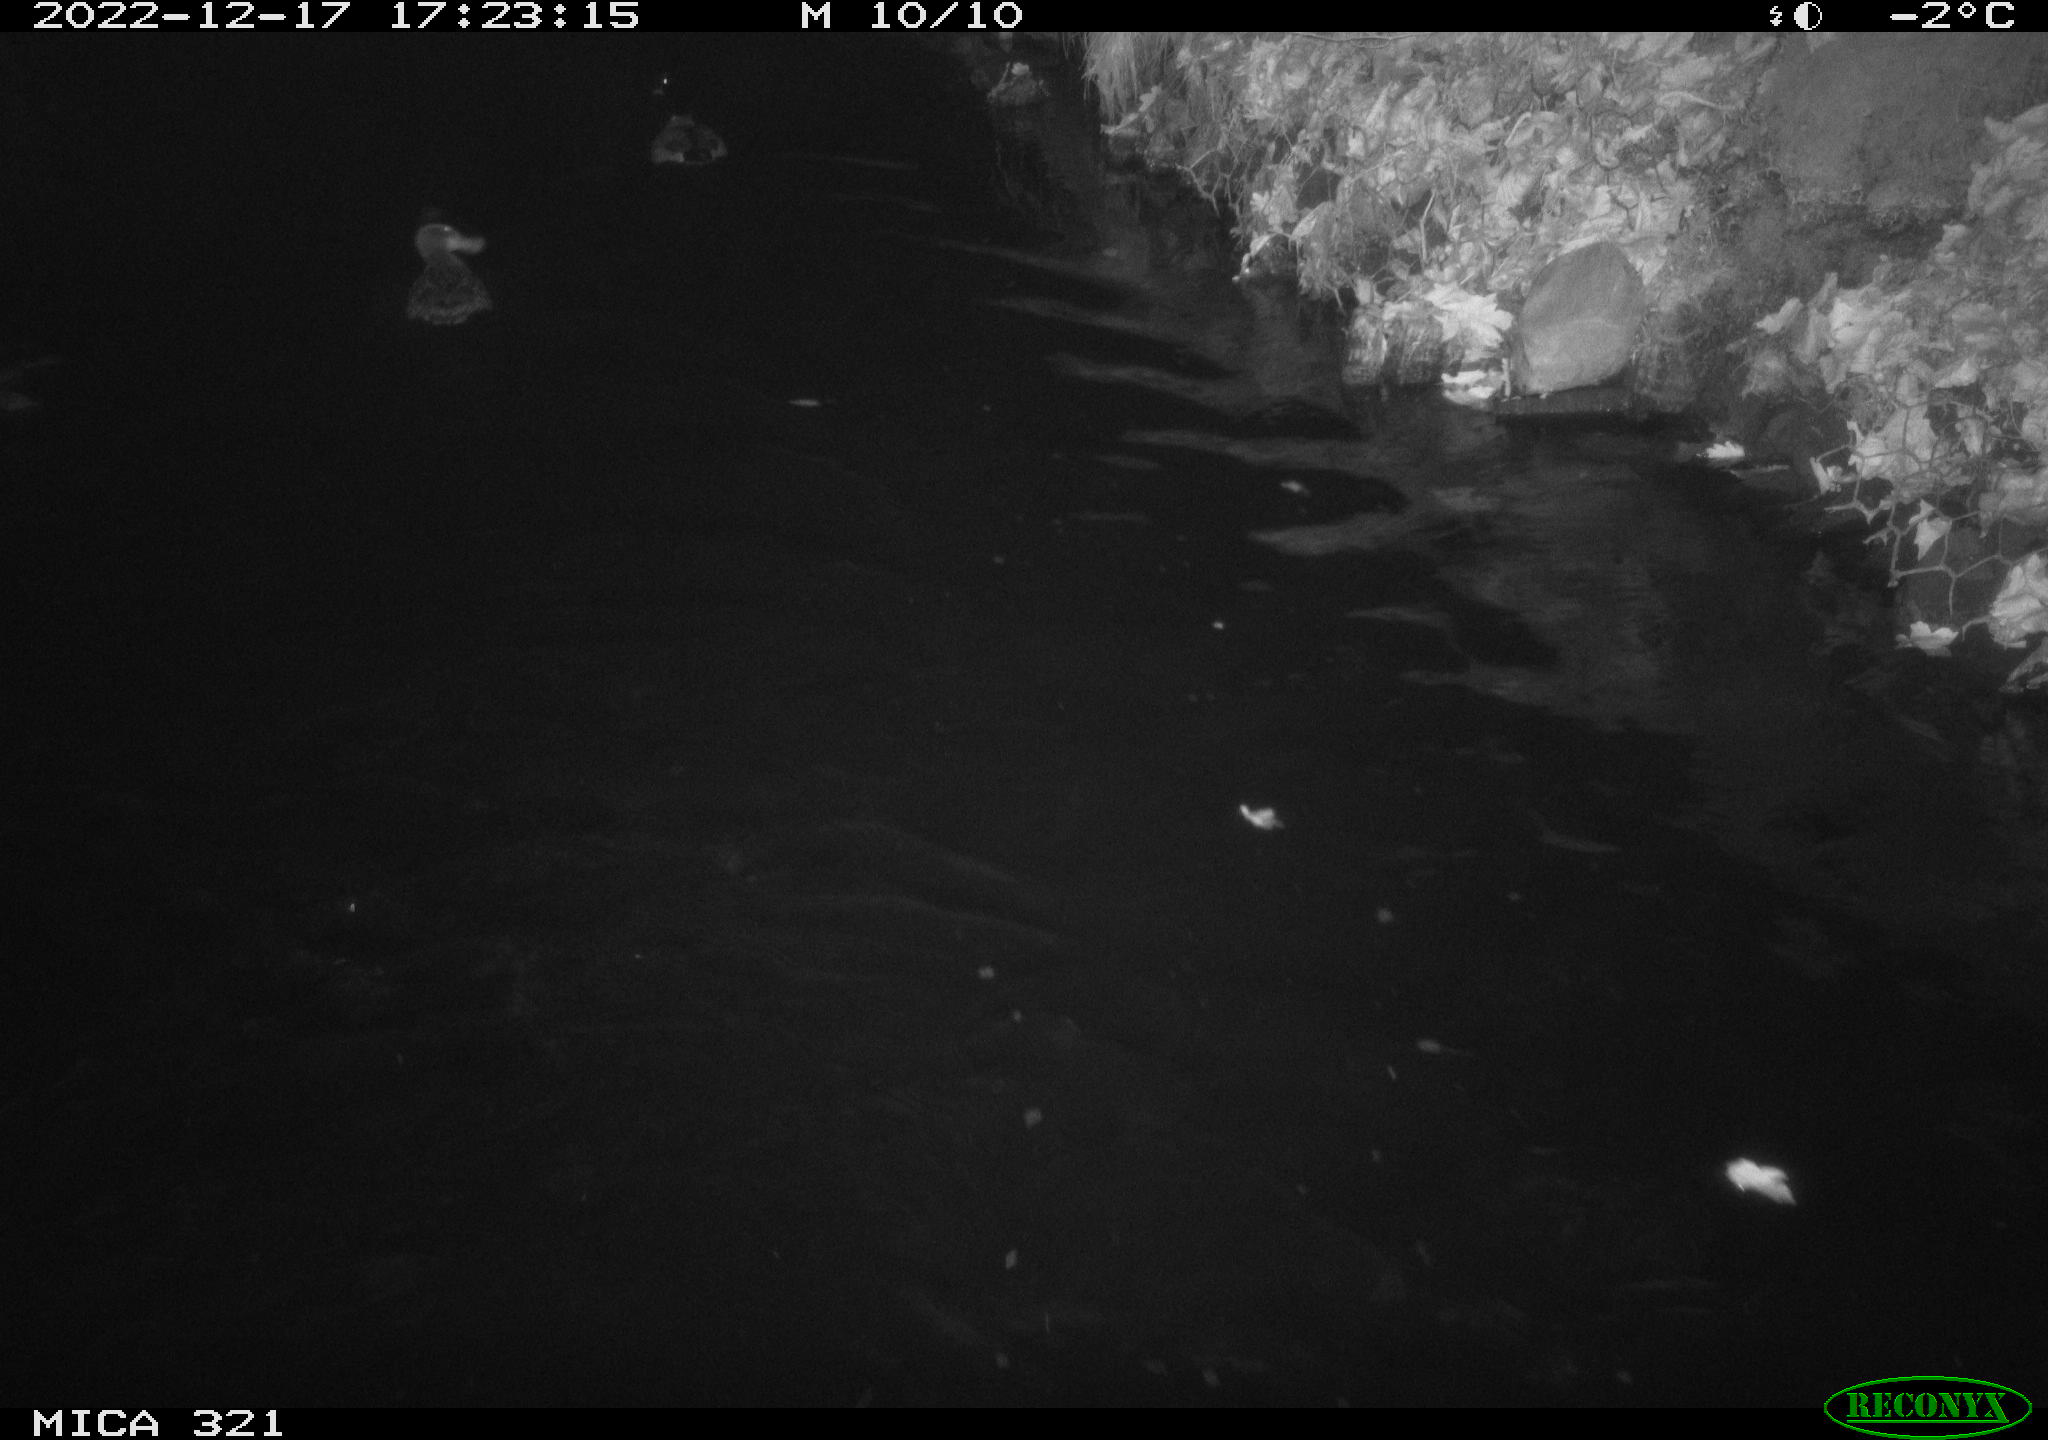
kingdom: Animalia
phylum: Chordata
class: Aves
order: Anseriformes
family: Anatidae
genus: Anas
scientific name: Anas
